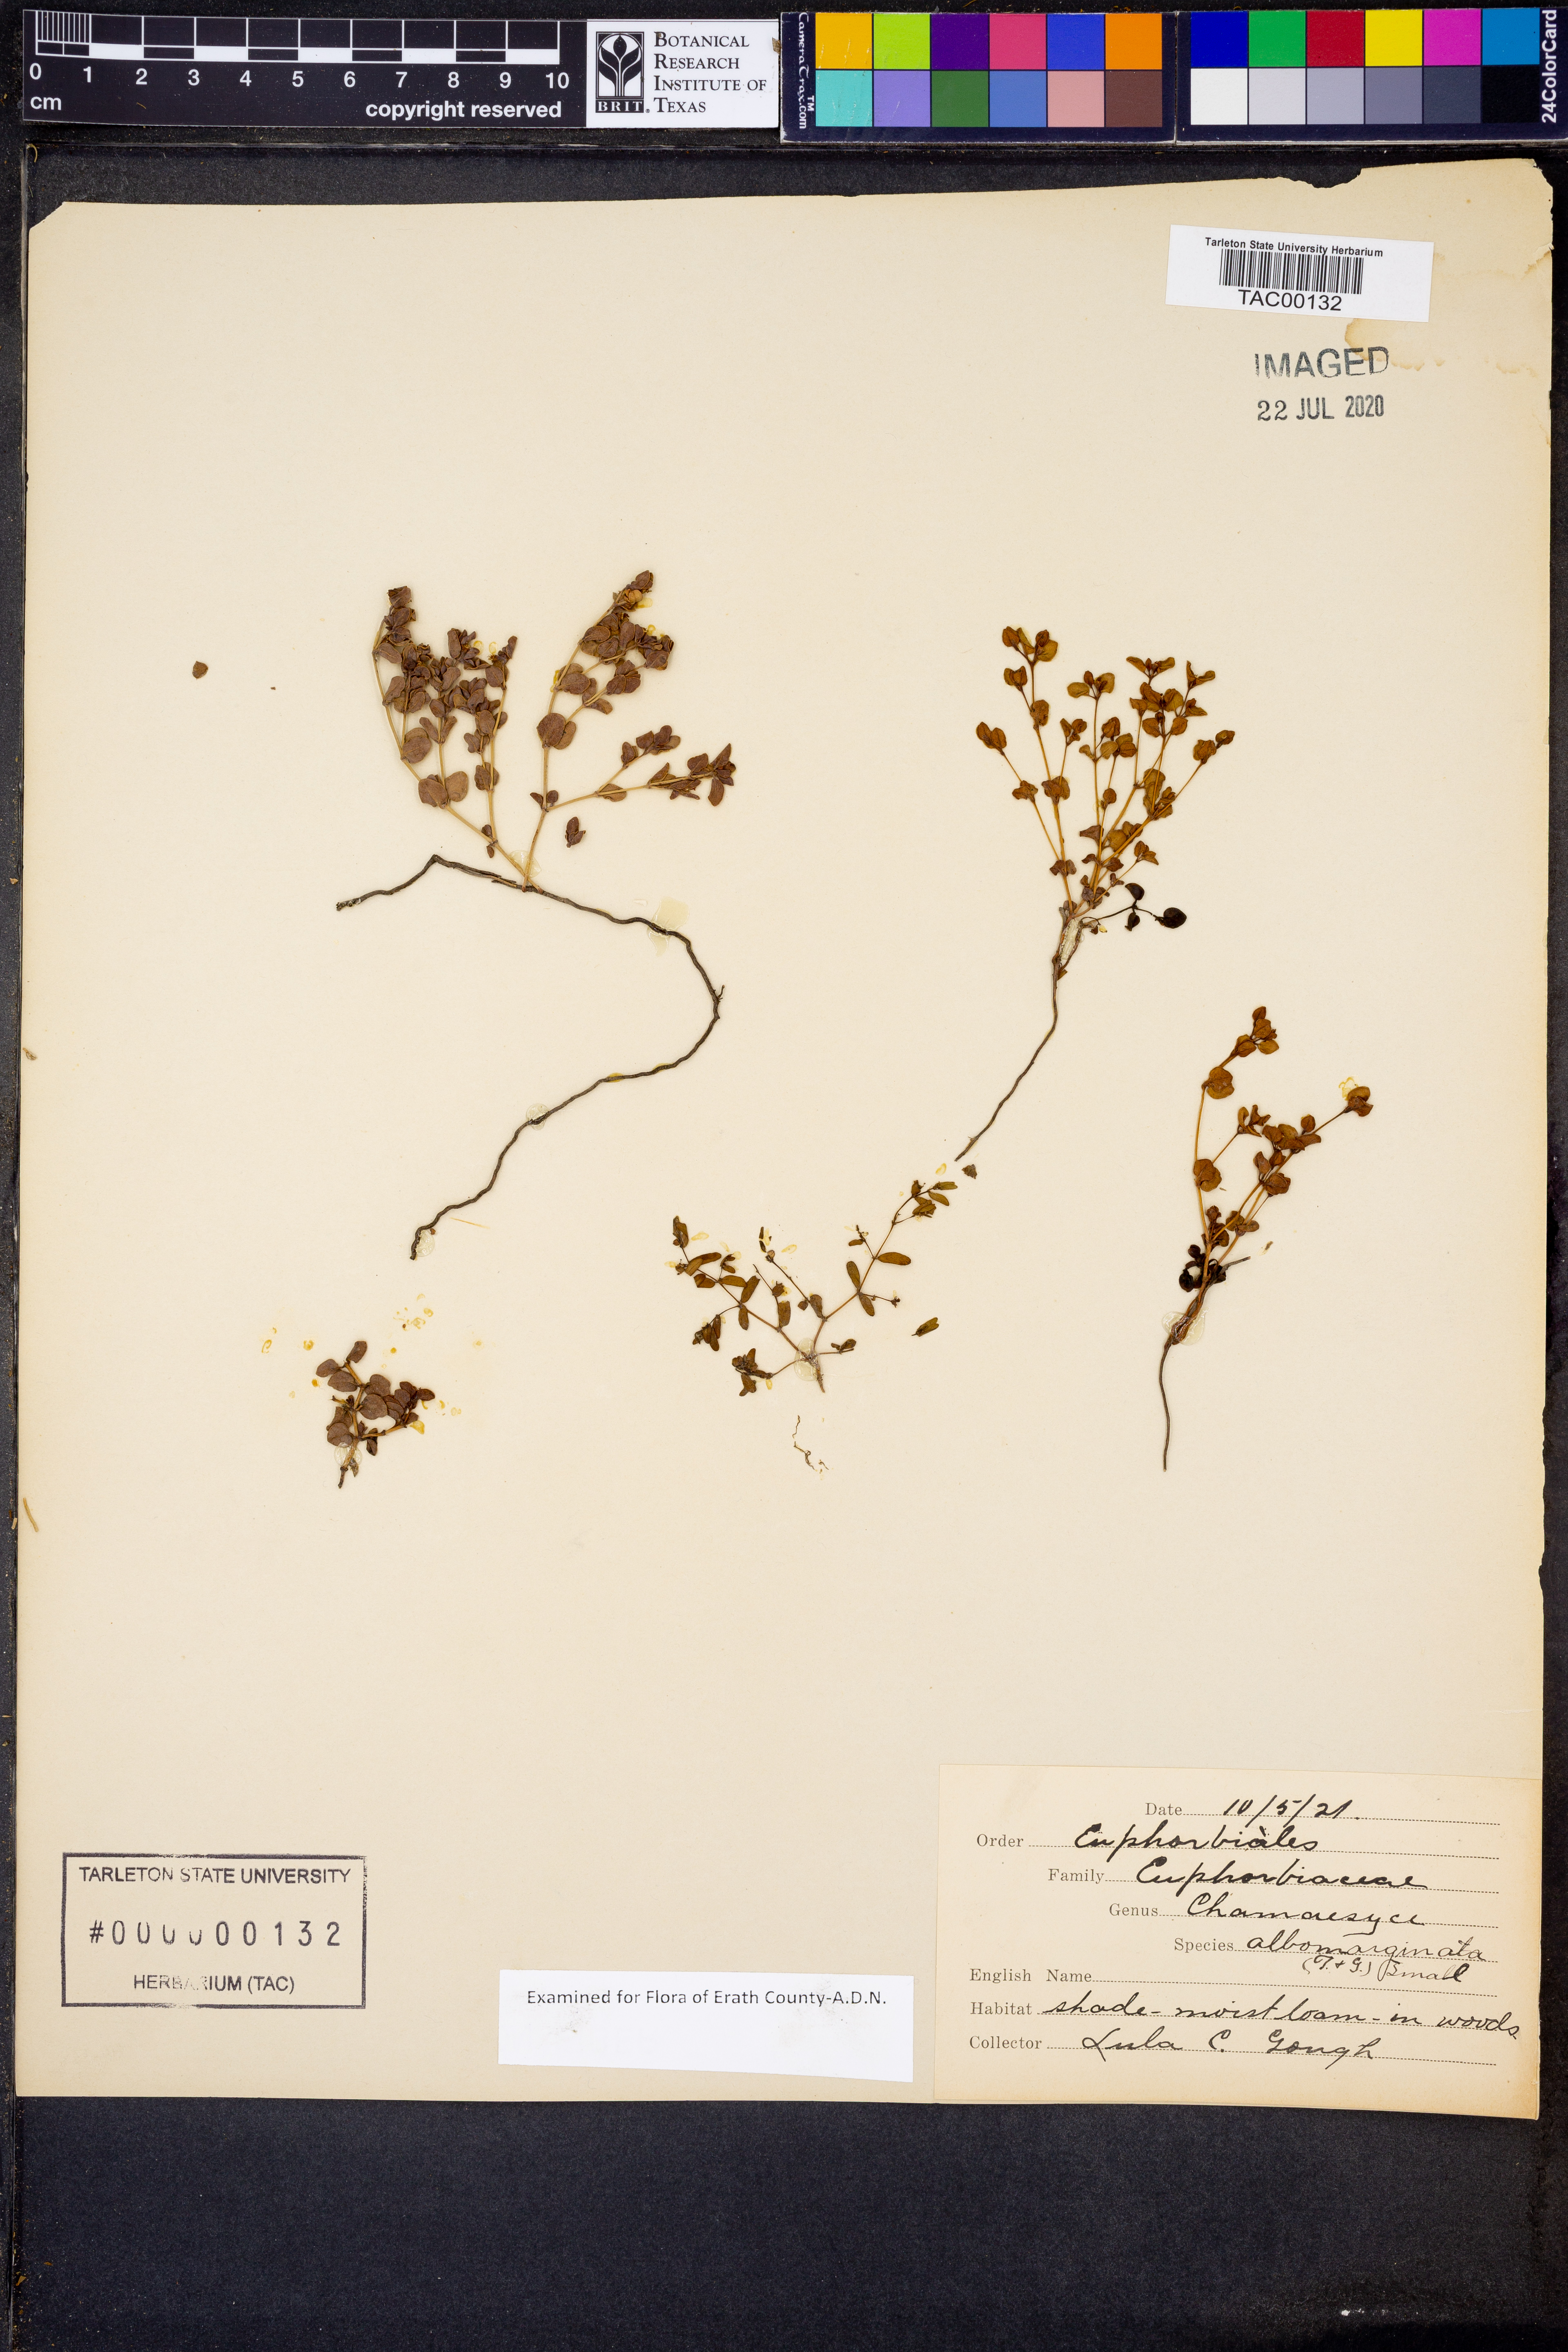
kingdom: Plantae
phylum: Tracheophyta
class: Magnoliopsida
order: Malpighiales
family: Euphorbiaceae
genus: Euphorbia
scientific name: Euphorbia albomarginata
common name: Whitemargin sandmat
